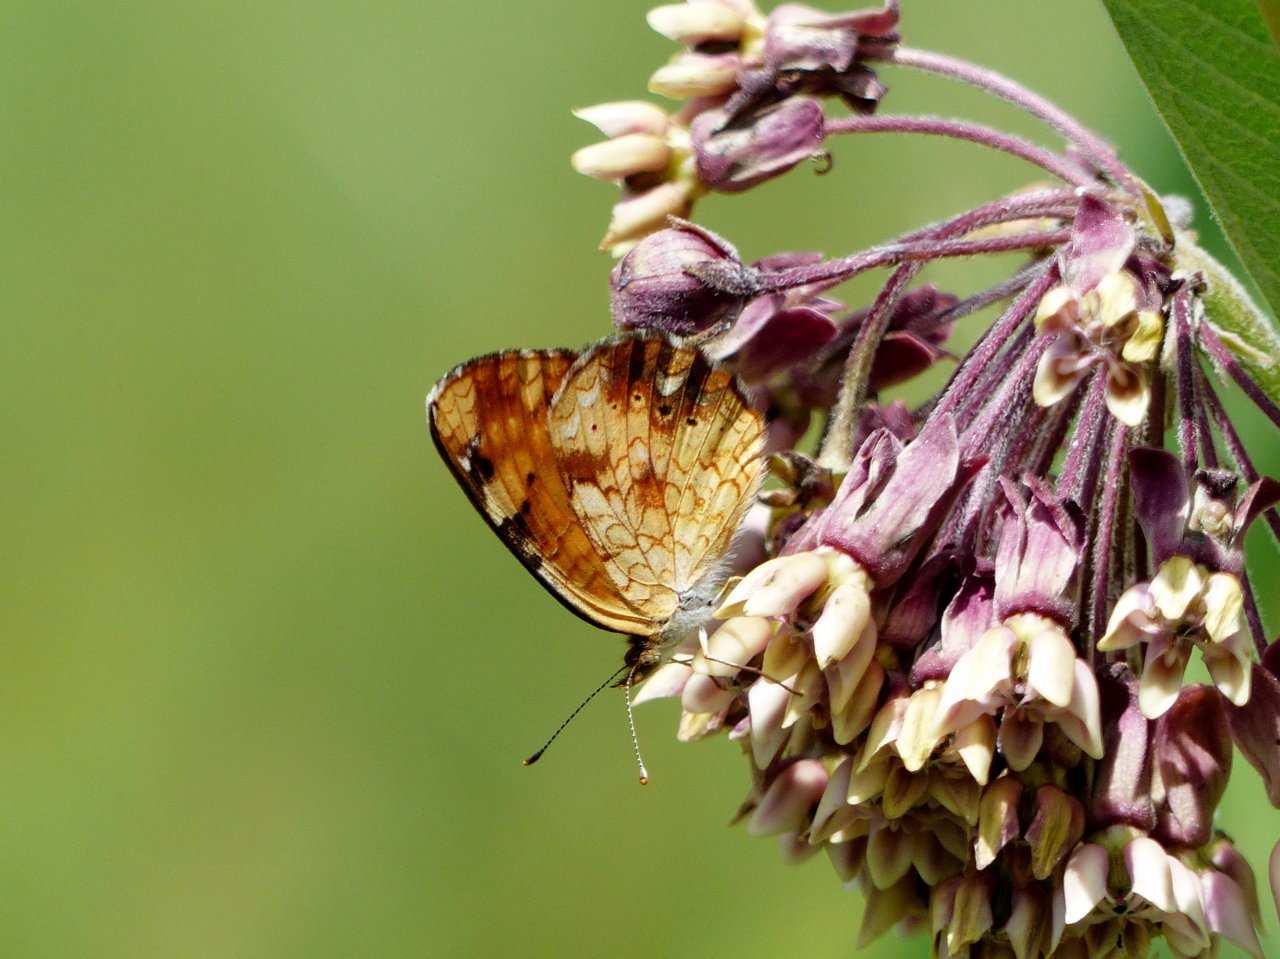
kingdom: Animalia
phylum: Arthropoda
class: Insecta
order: Lepidoptera
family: Nymphalidae
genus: Phyciodes
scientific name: Phyciodes tharos
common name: Northern Crescent
